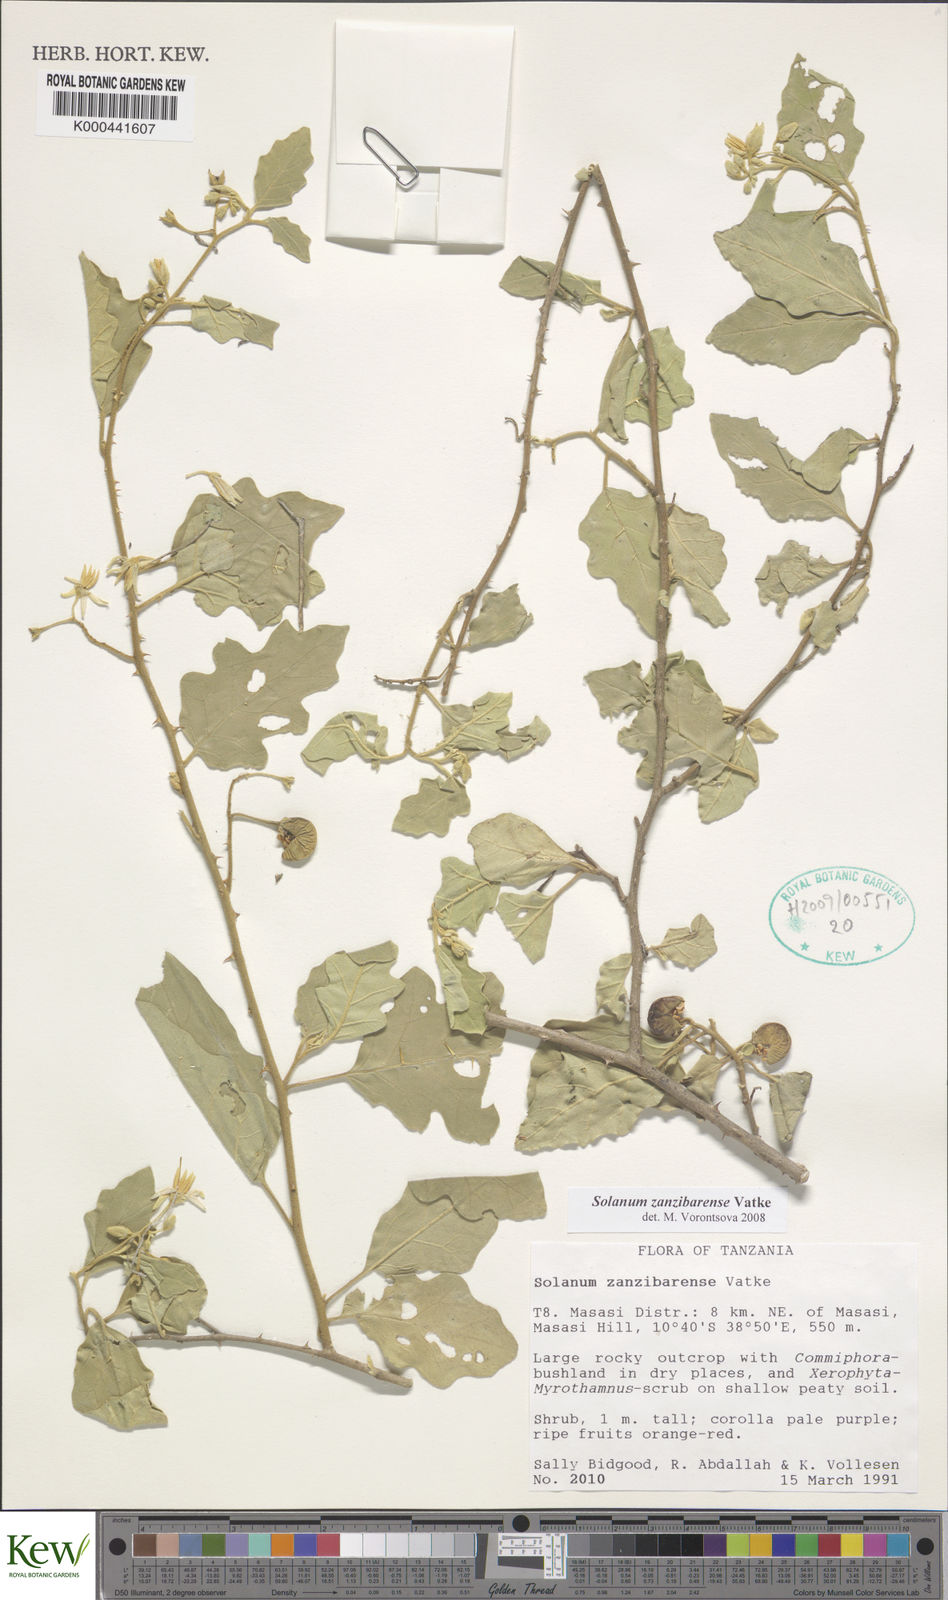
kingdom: Plantae
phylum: Tracheophyta
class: Magnoliopsida
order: Solanales
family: Solanaceae
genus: Solanum
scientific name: Solanum zanzibarense
